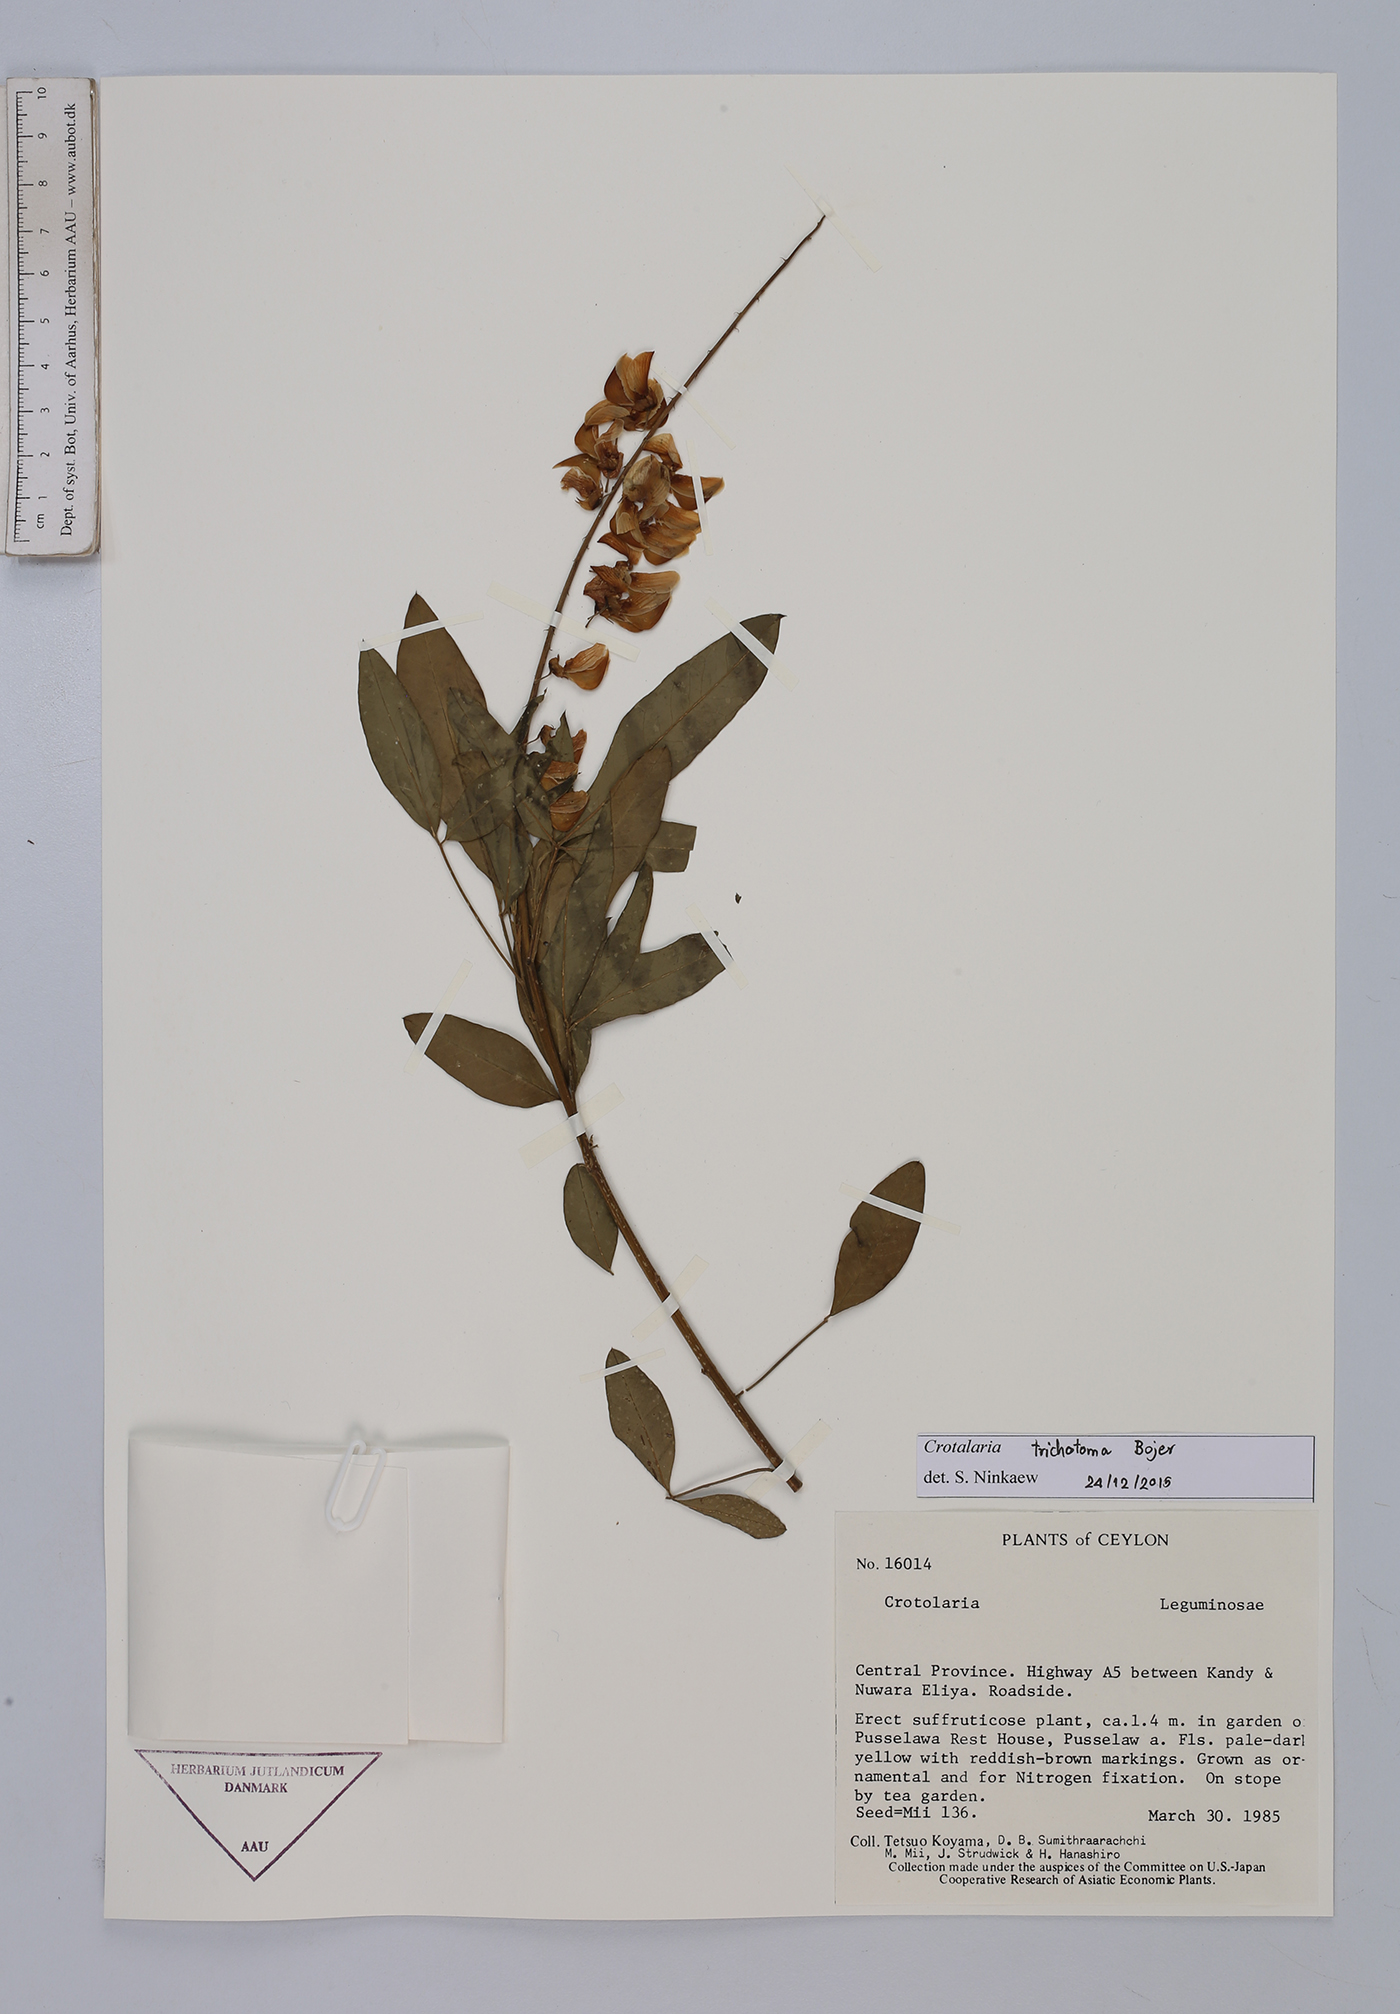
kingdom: Plantae
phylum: Tracheophyta
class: Magnoliopsida
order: Fabales
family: Fabaceae
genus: Crotalaria
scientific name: Crotalaria trichotoma
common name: West indian rattlebox
